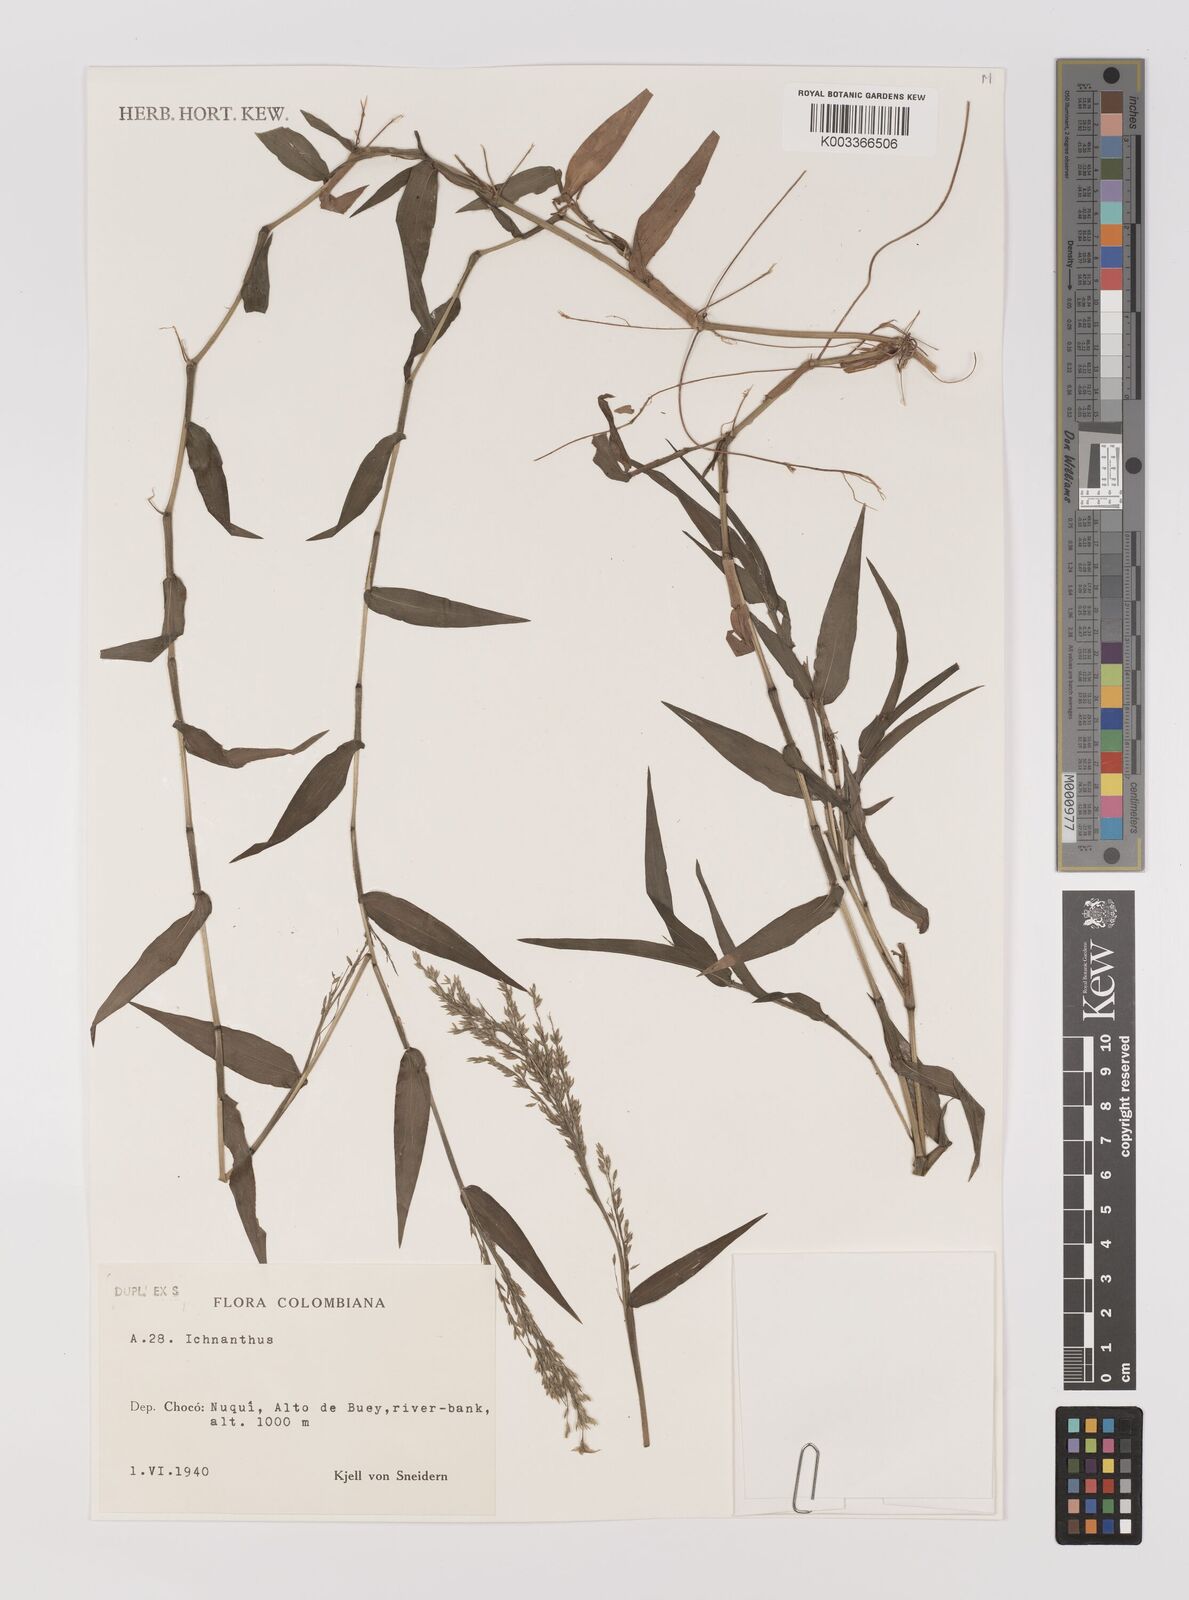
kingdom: Plantae
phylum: Tracheophyta
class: Liliopsida
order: Poales
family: Poaceae
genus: Ichnanthus
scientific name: Ichnanthus
